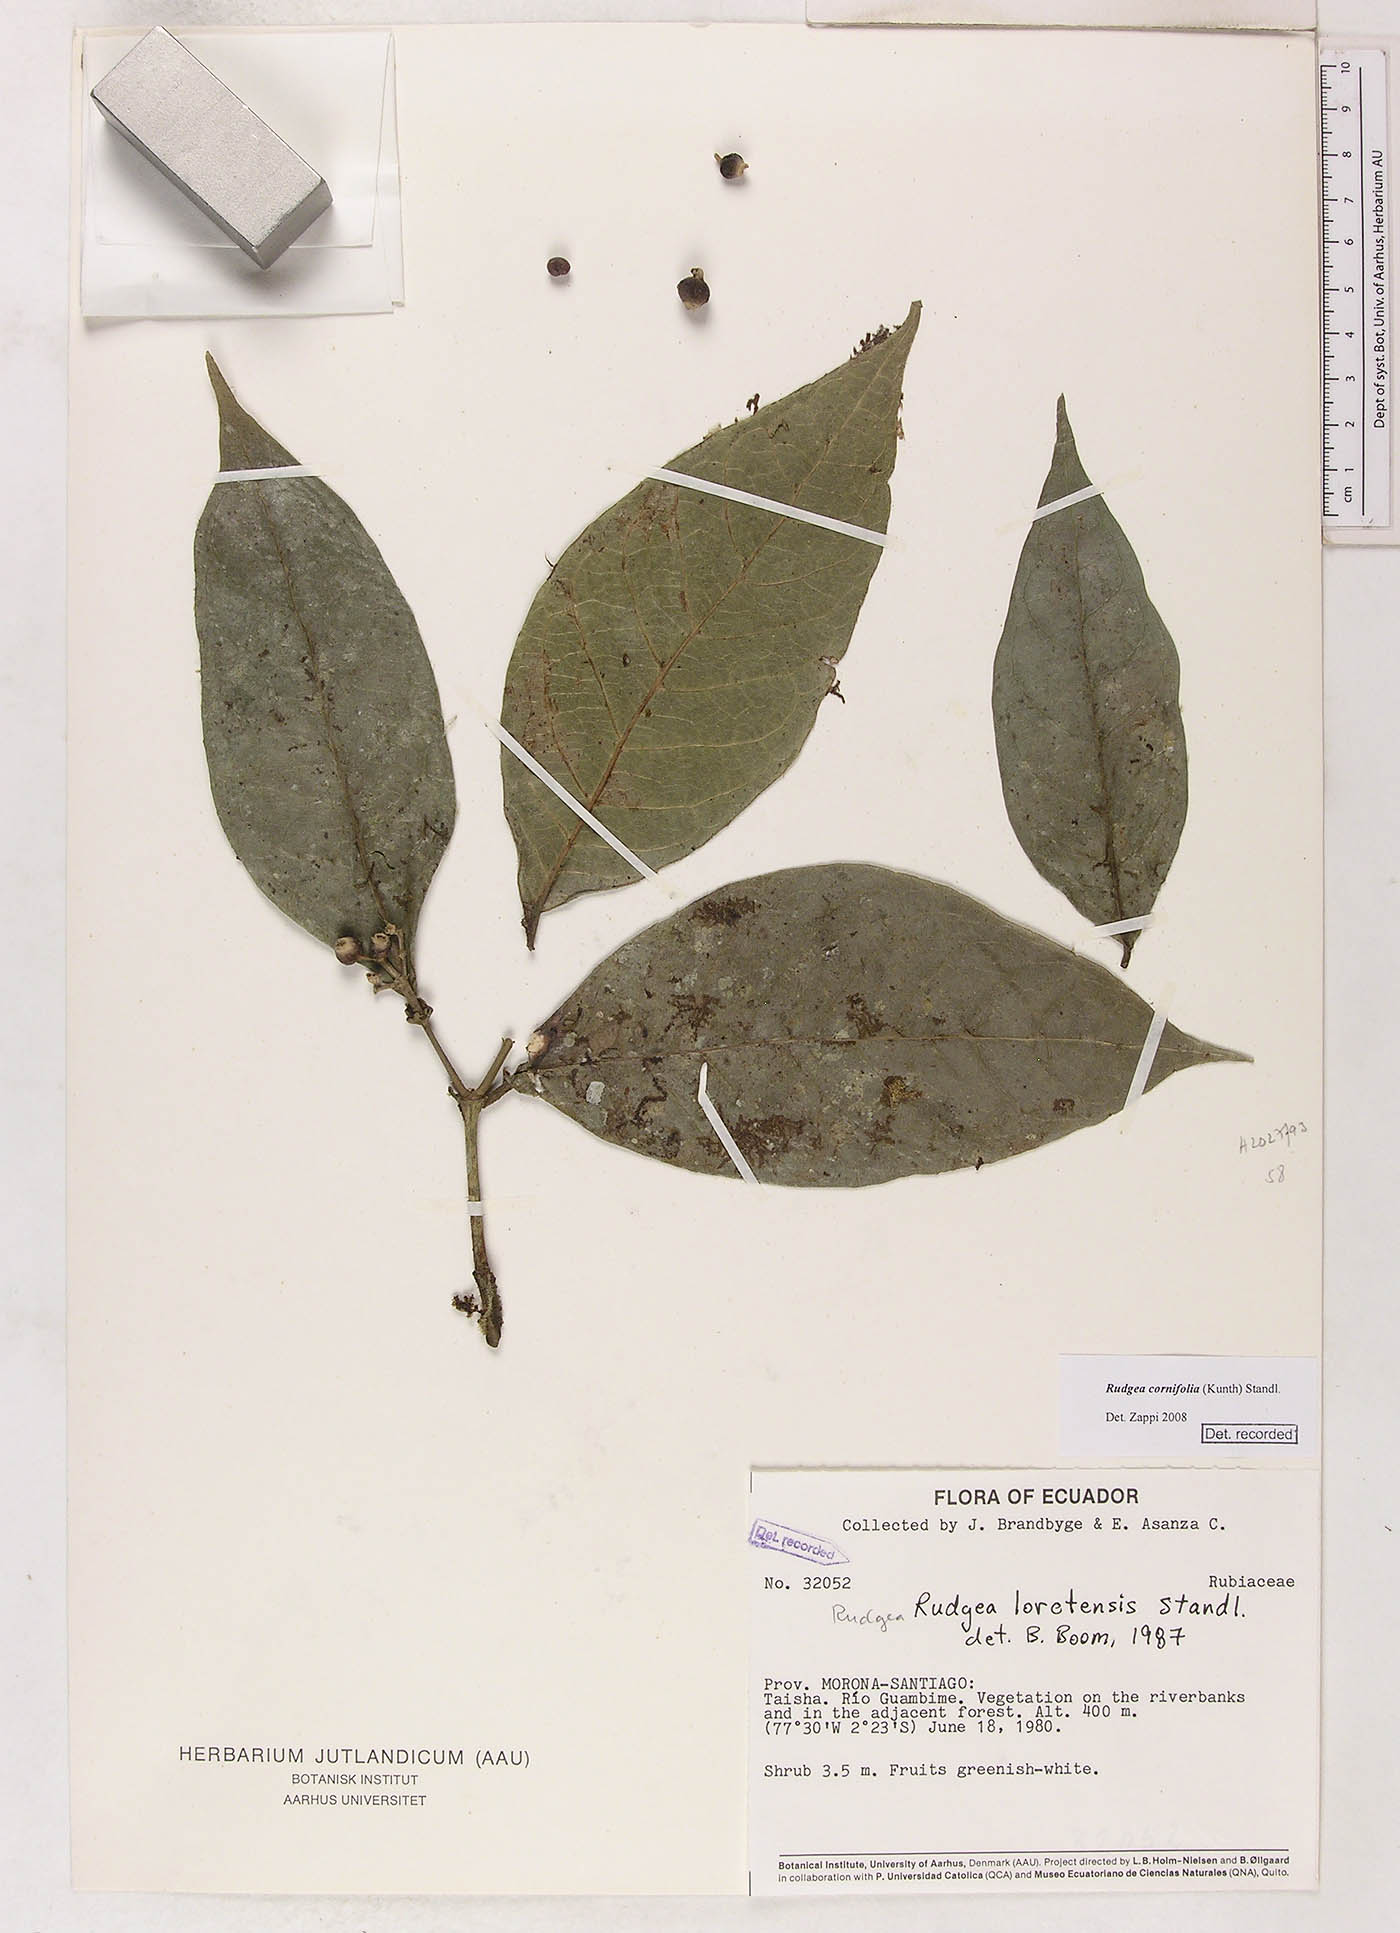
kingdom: Plantae
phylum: Tracheophyta
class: Magnoliopsida
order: Gentianales
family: Rubiaceae
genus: Rudgea
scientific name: Rudgea cornifolia
